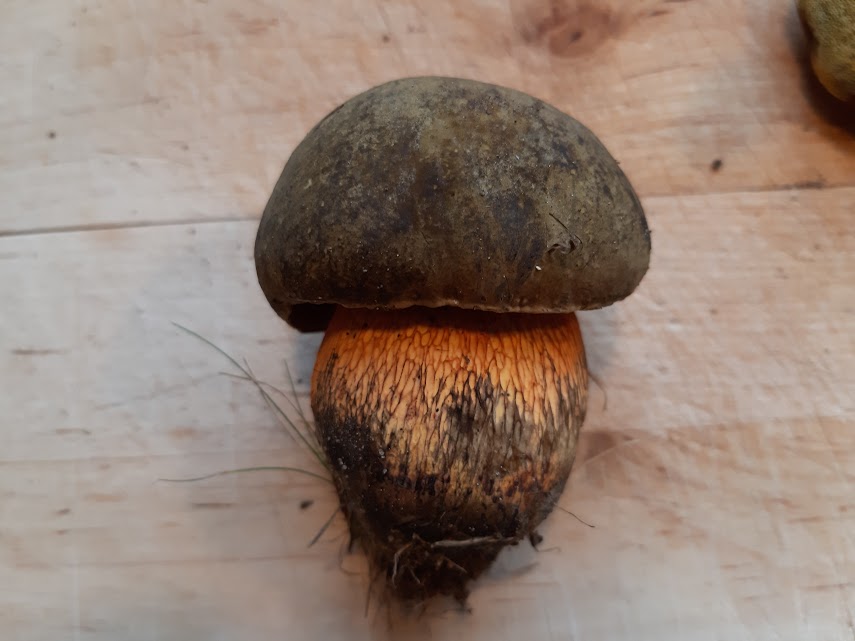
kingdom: Fungi
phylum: Basidiomycota
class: Agaricomycetes
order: Boletales
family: Boletaceae
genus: Suillellus
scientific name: Suillellus luridus
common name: netstokket indigorørhat
